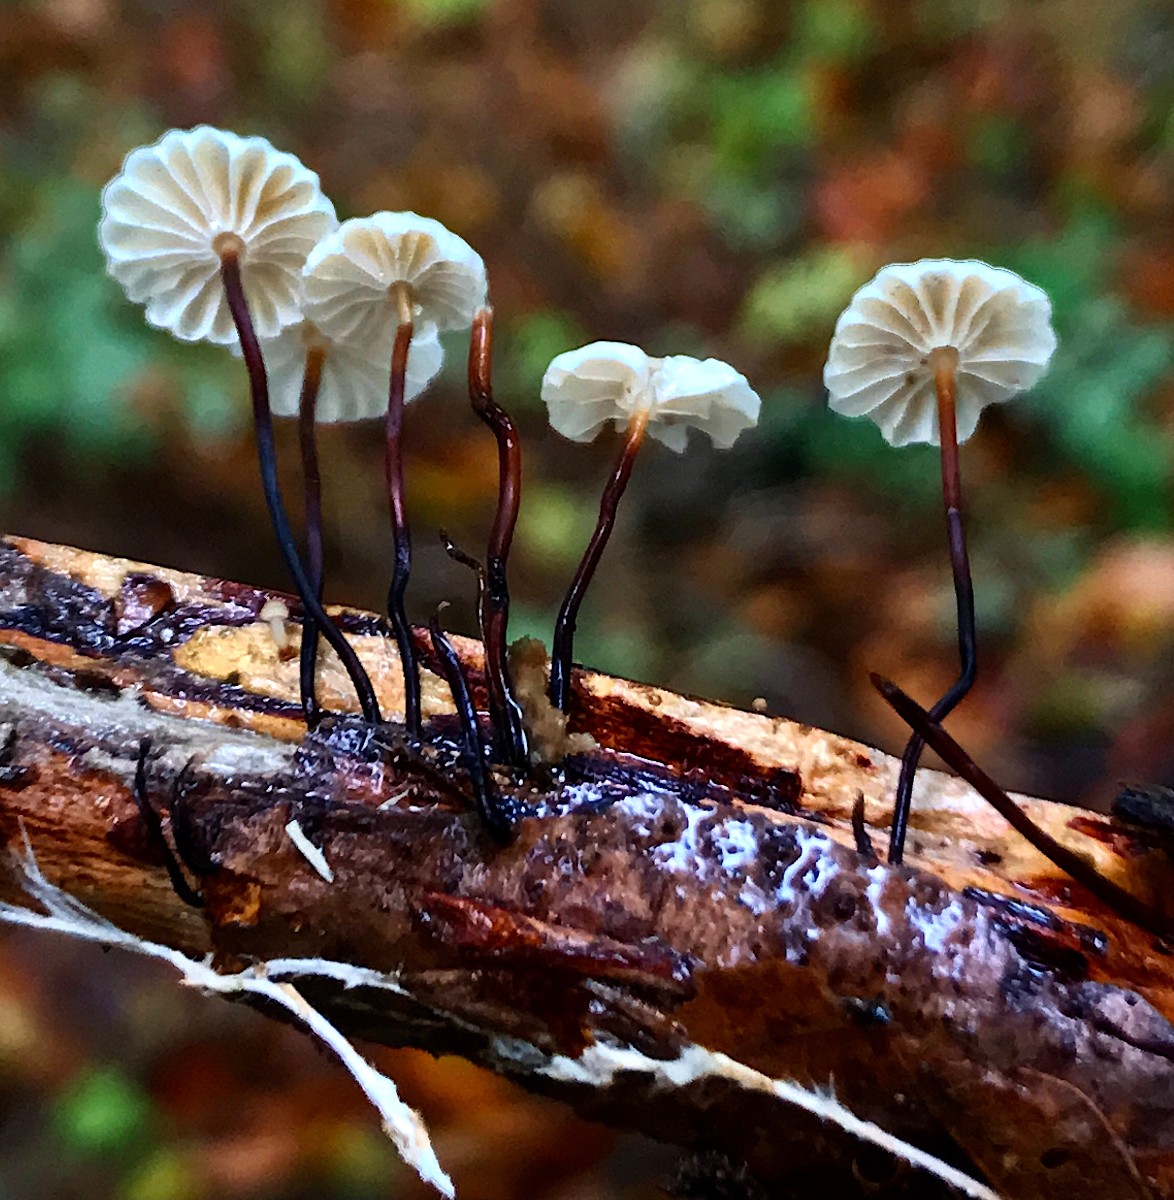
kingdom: Fungi
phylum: Basidiomycota
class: Agaricomycetes
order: Agaricales
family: Marasmiaceae
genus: Marasmius
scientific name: Marasmius rotula
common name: hjul-bruskhat
